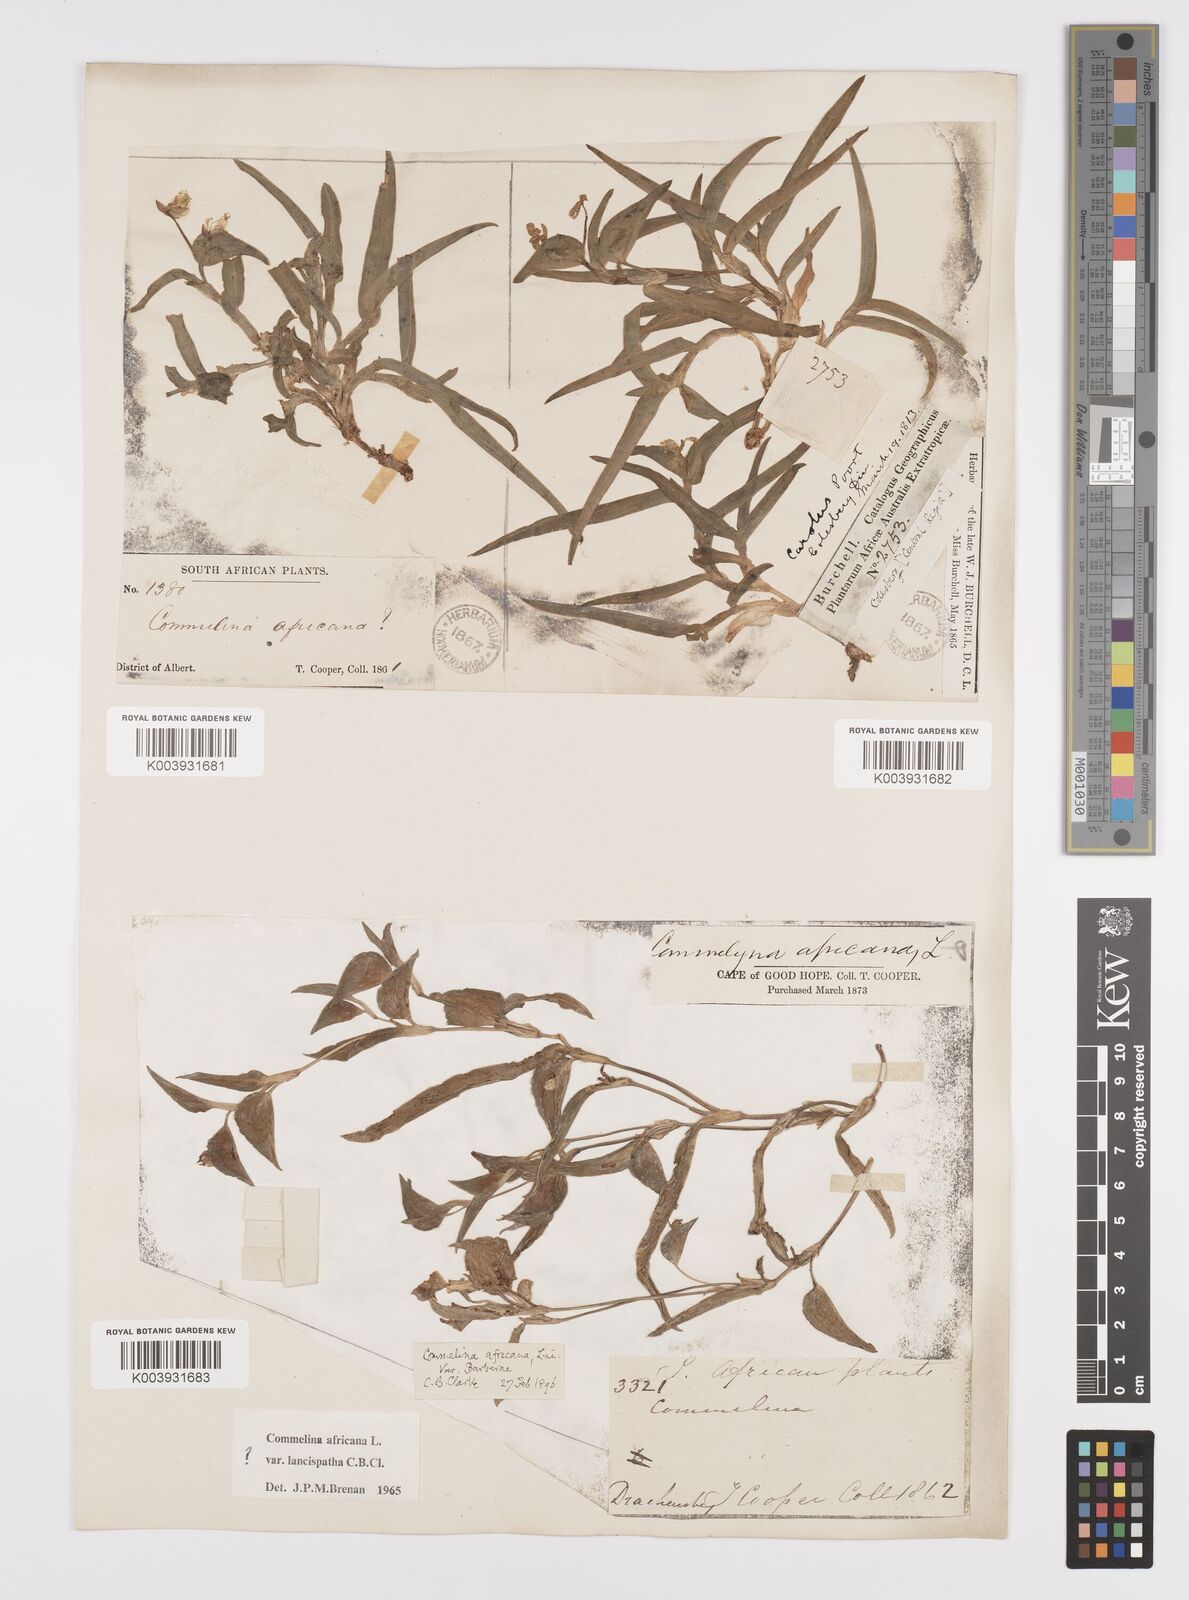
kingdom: Plantae
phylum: Tracheophyta
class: Liliopsida
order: Commelinales
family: Commelinaceae
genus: Commelina
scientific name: Commelina africana
